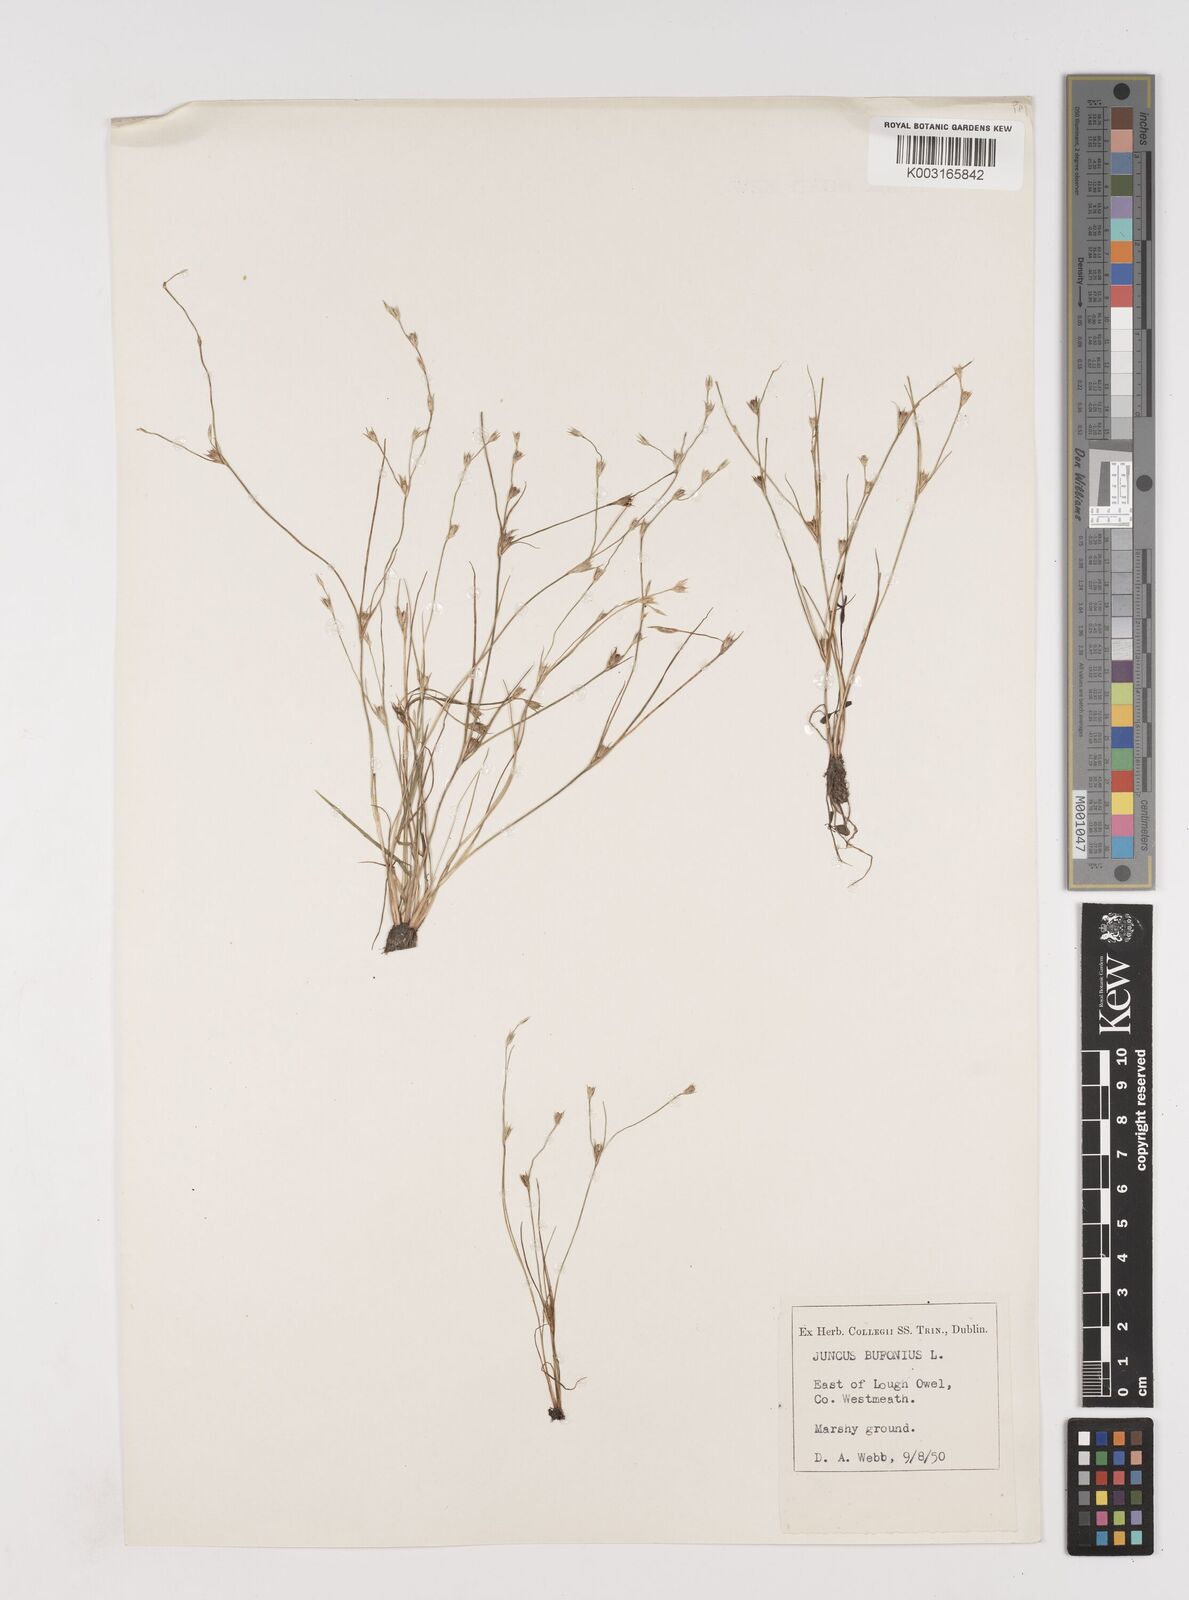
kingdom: Plantae
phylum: Tracheophyta
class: Liliopsida
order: Poales
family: Juncaceae
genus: Juncus
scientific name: Juncus bufonius
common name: Toad rush
